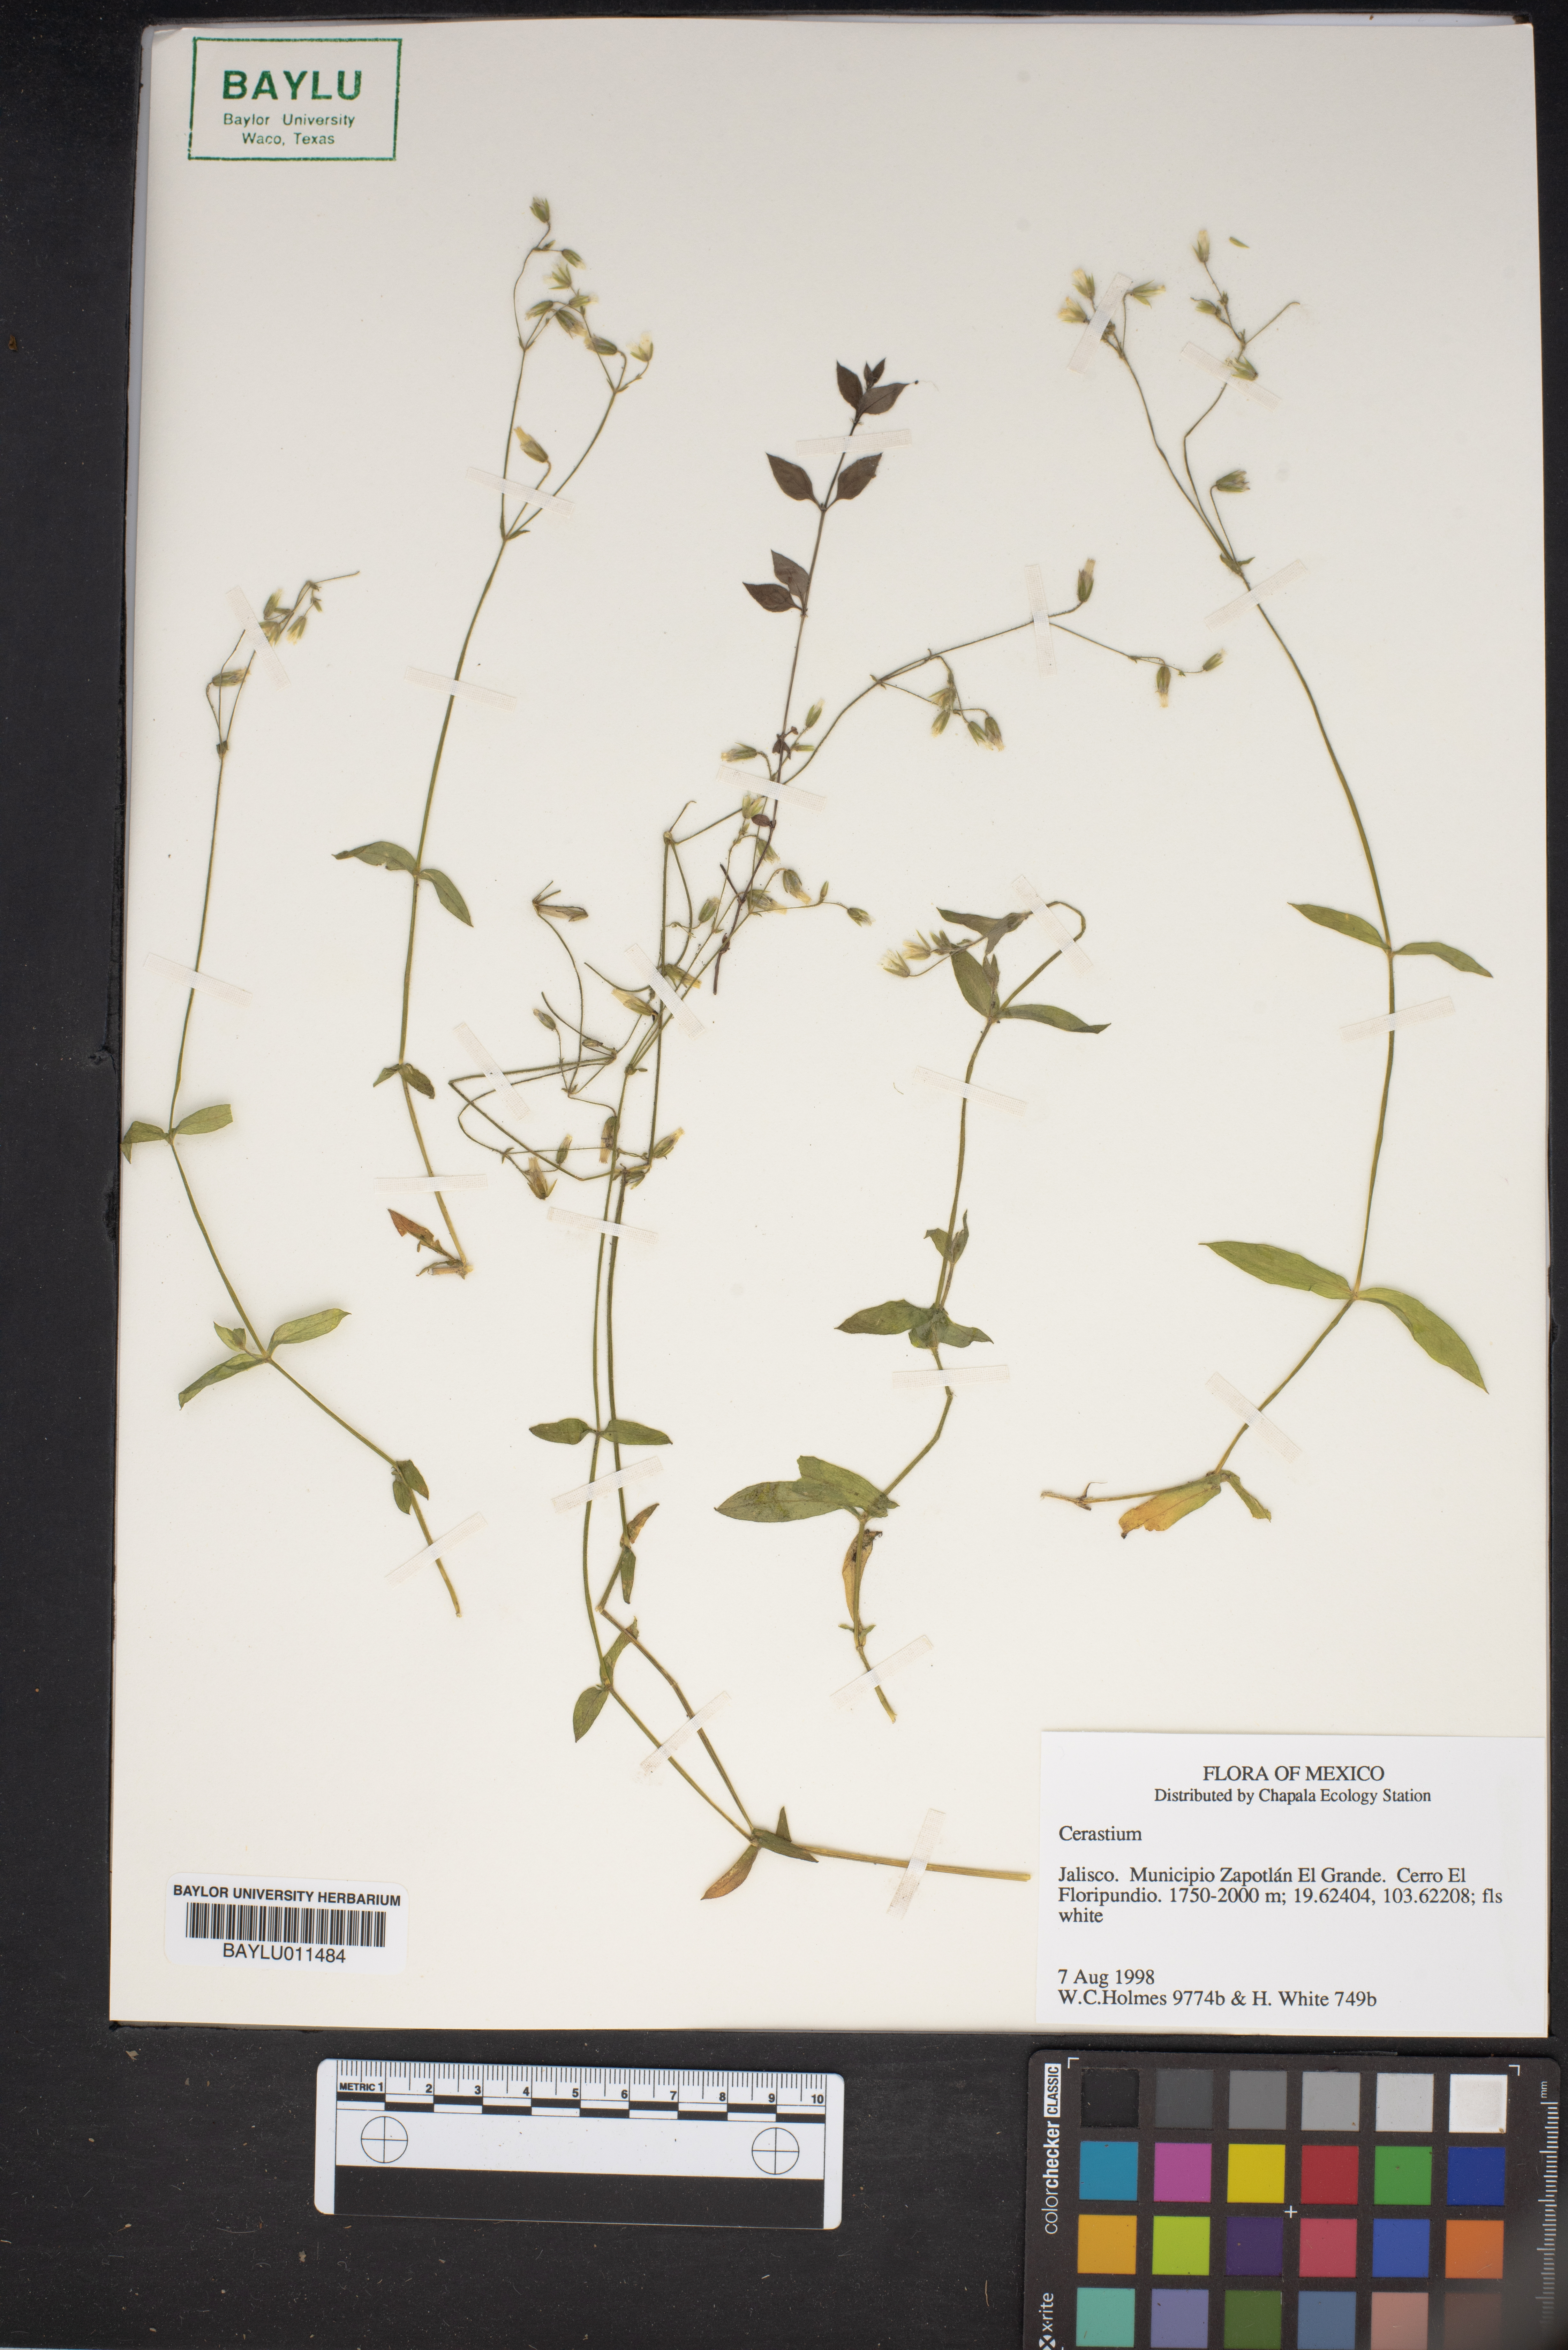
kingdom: Plantae
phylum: Tracheophyta
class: Magnoliopsida
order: Caryophyllales
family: Caryophyllaceae
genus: Cerastium
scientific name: Cerastium
